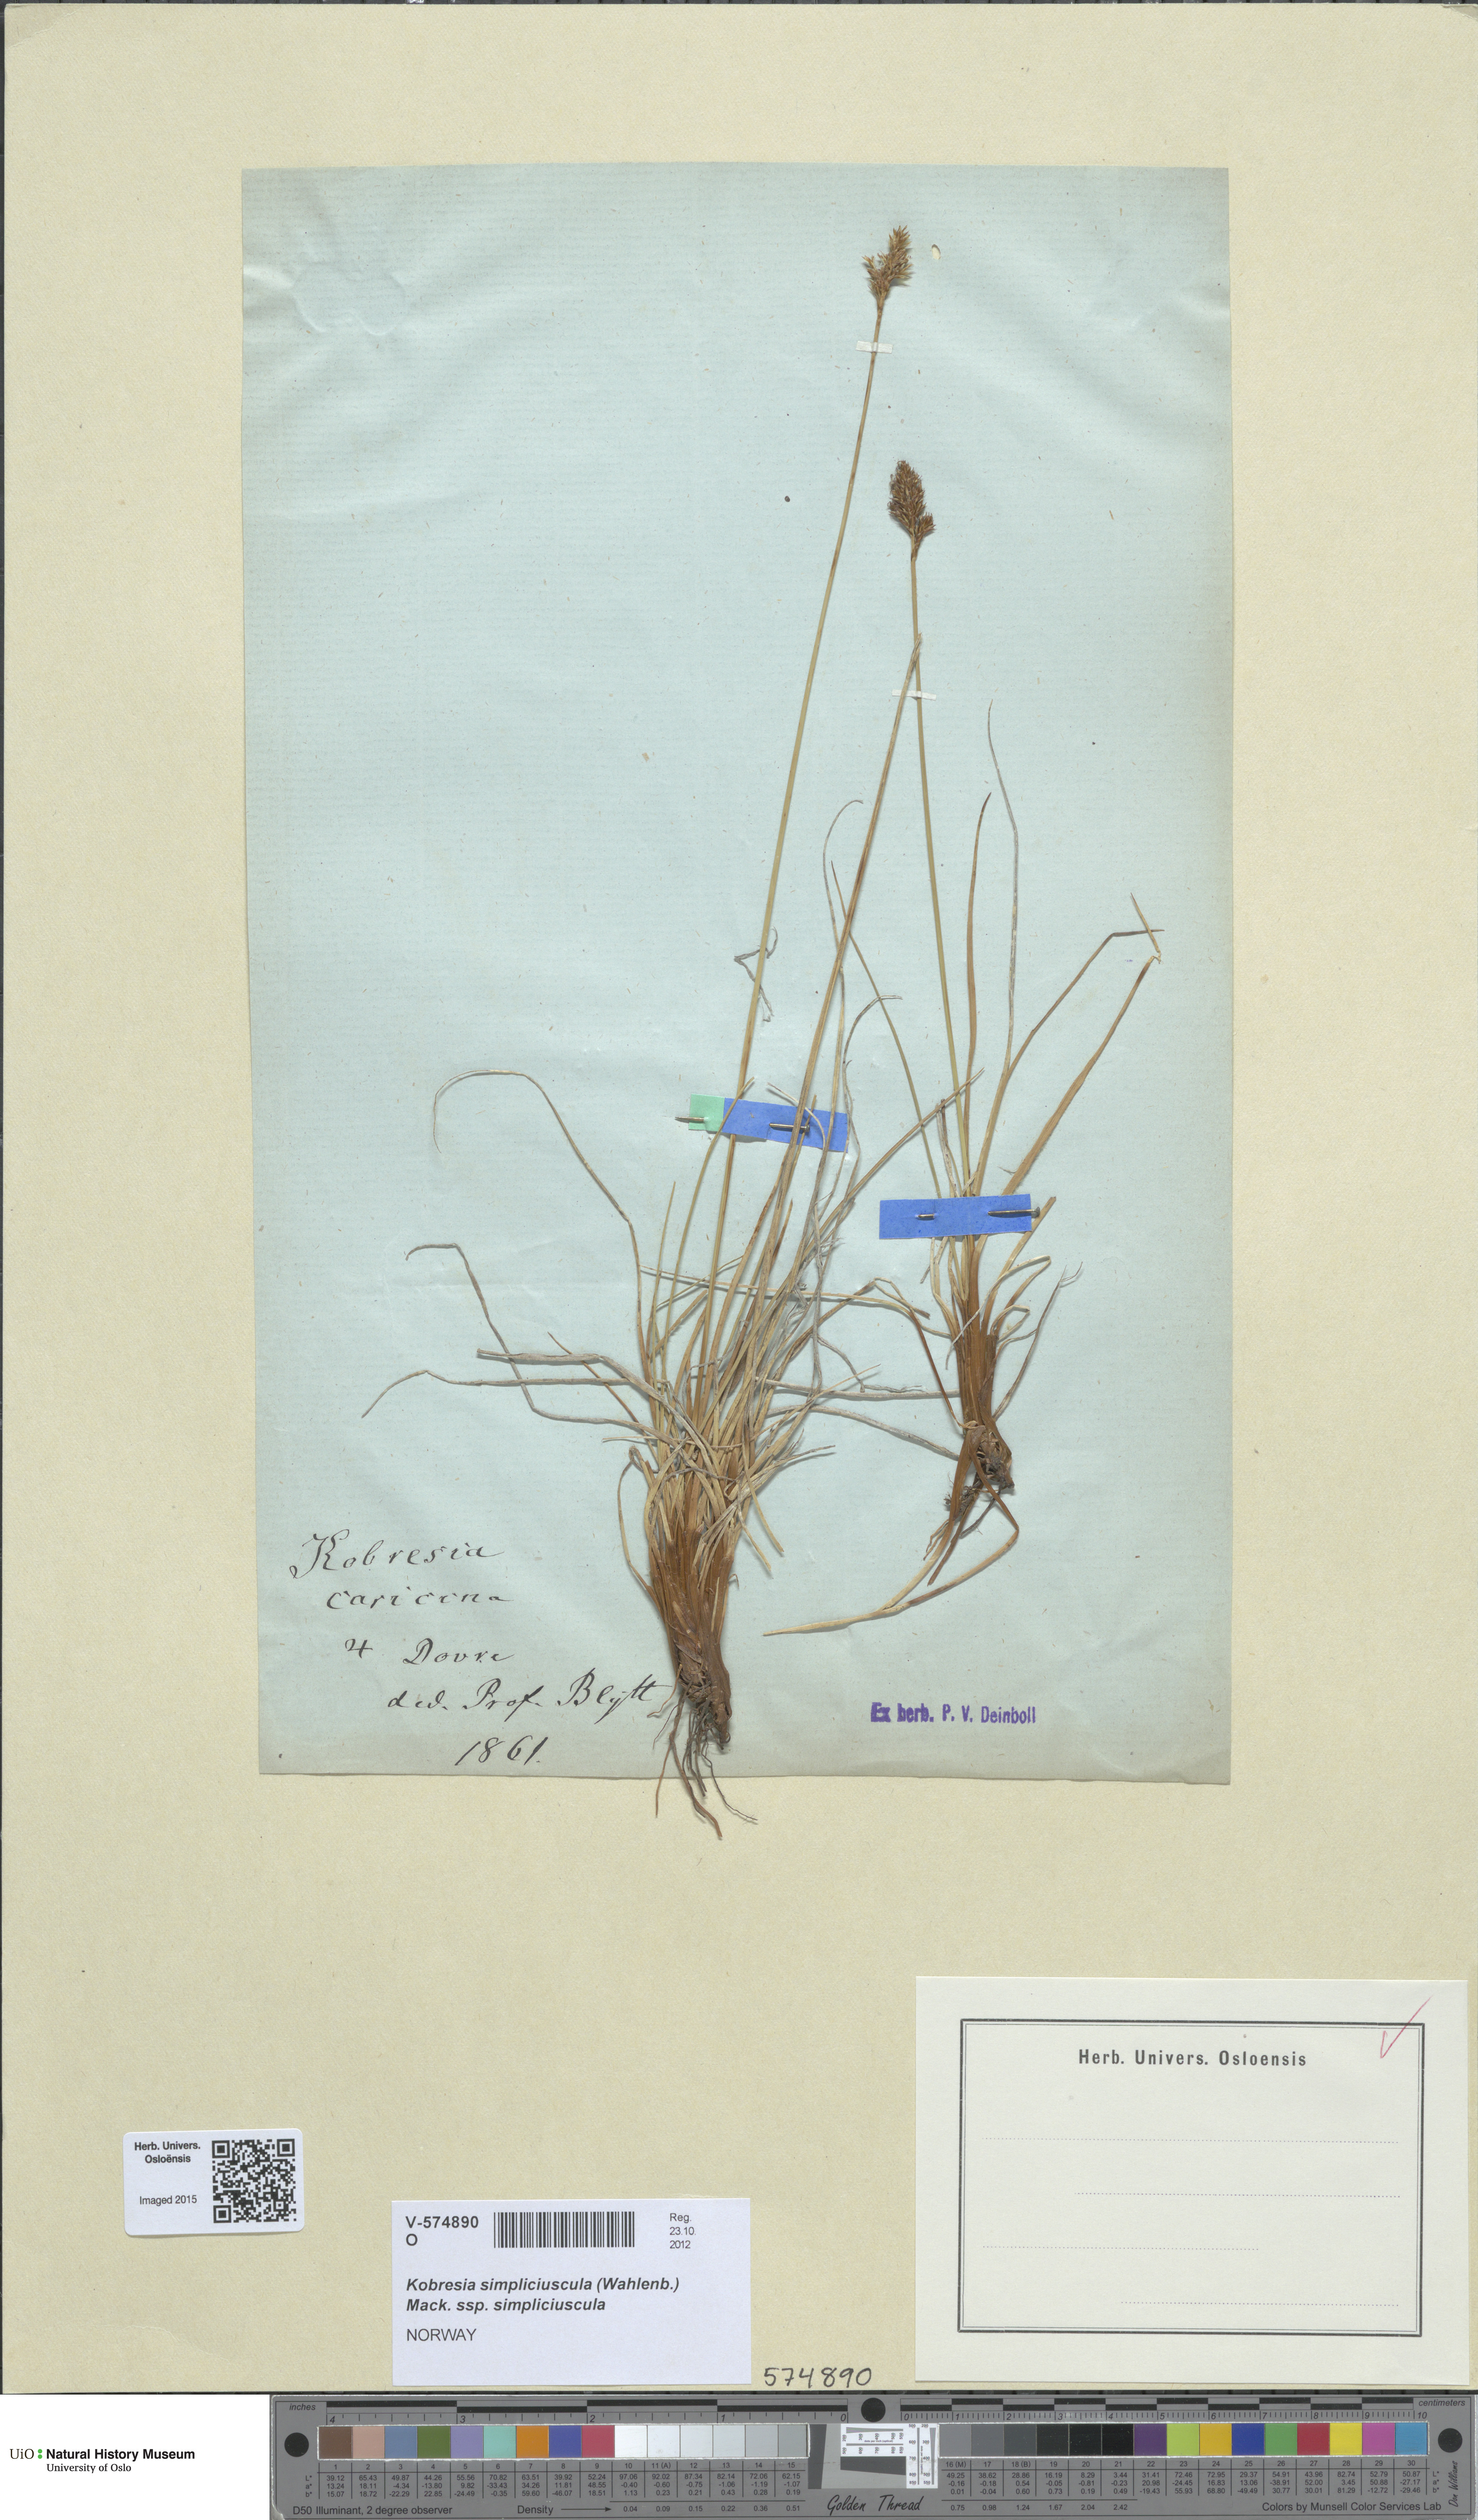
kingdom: Plantae
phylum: Tracheophyta
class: Liliopsida
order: Poales
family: Cyperaceae
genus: Carex
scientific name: Carex simpliciuscula
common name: Simple bog sedge
